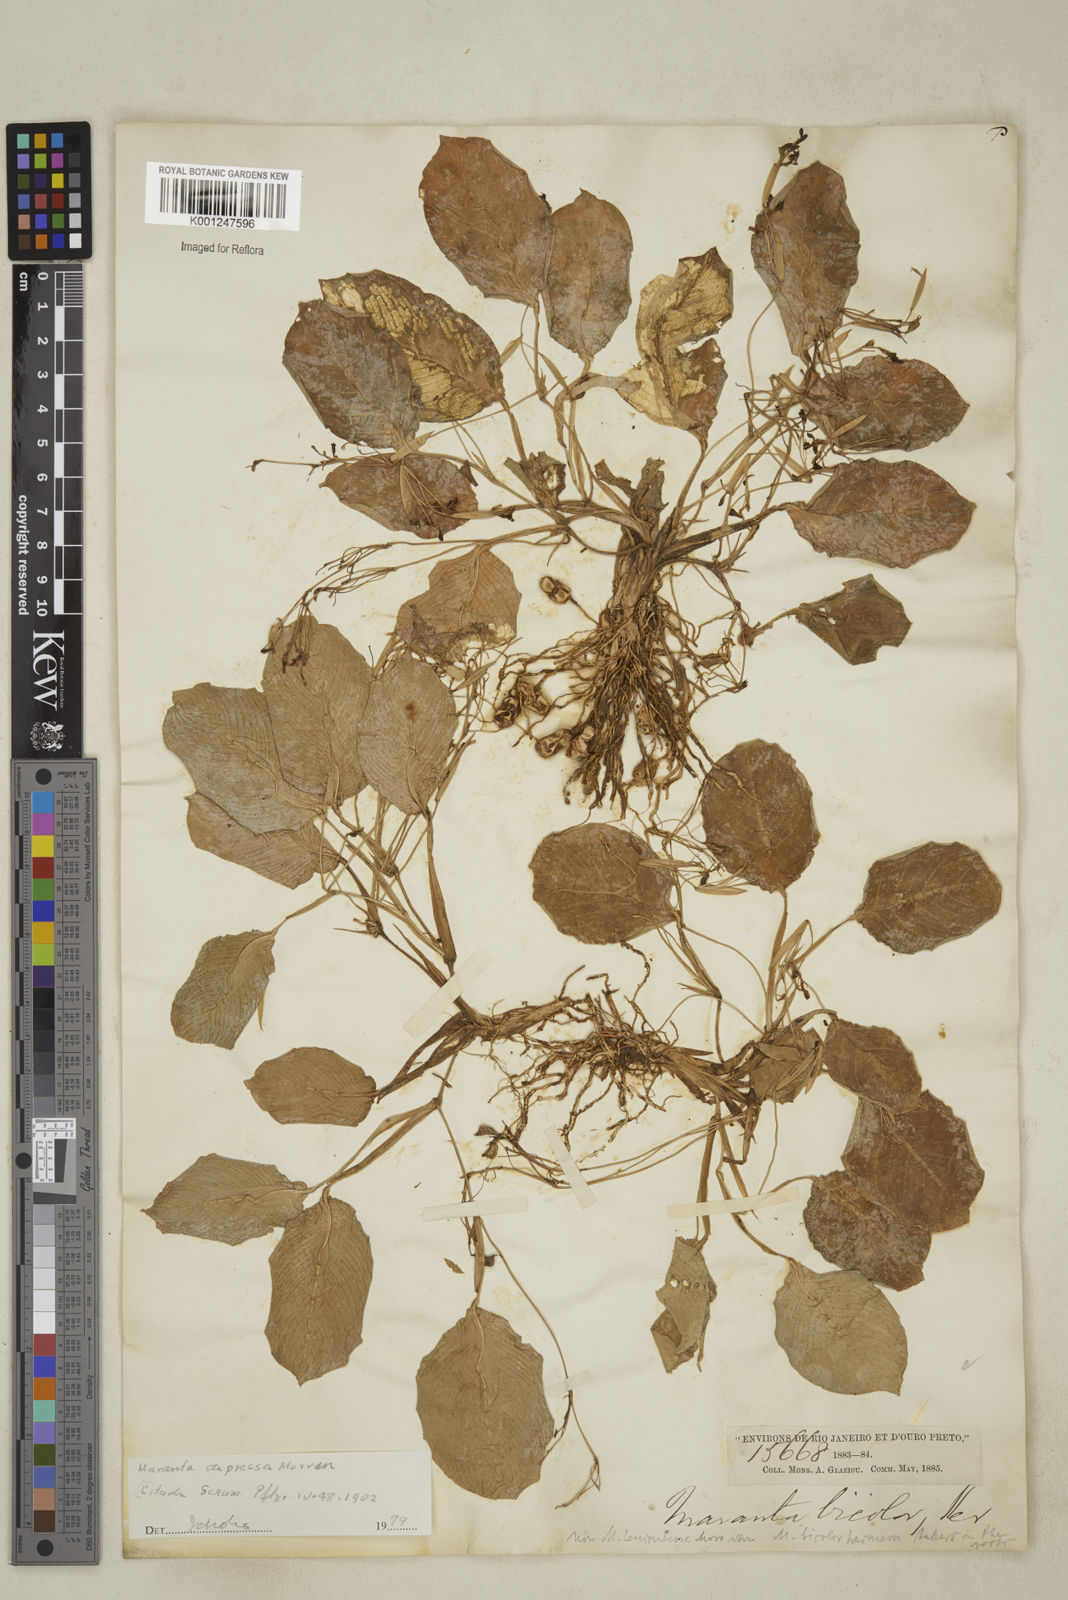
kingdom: Plantae
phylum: Tracheophyta
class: Liliopsida
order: Zingiberales
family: Marantaceae
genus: Maranta
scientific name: Maranta leuconeura
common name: Ten-commandments
